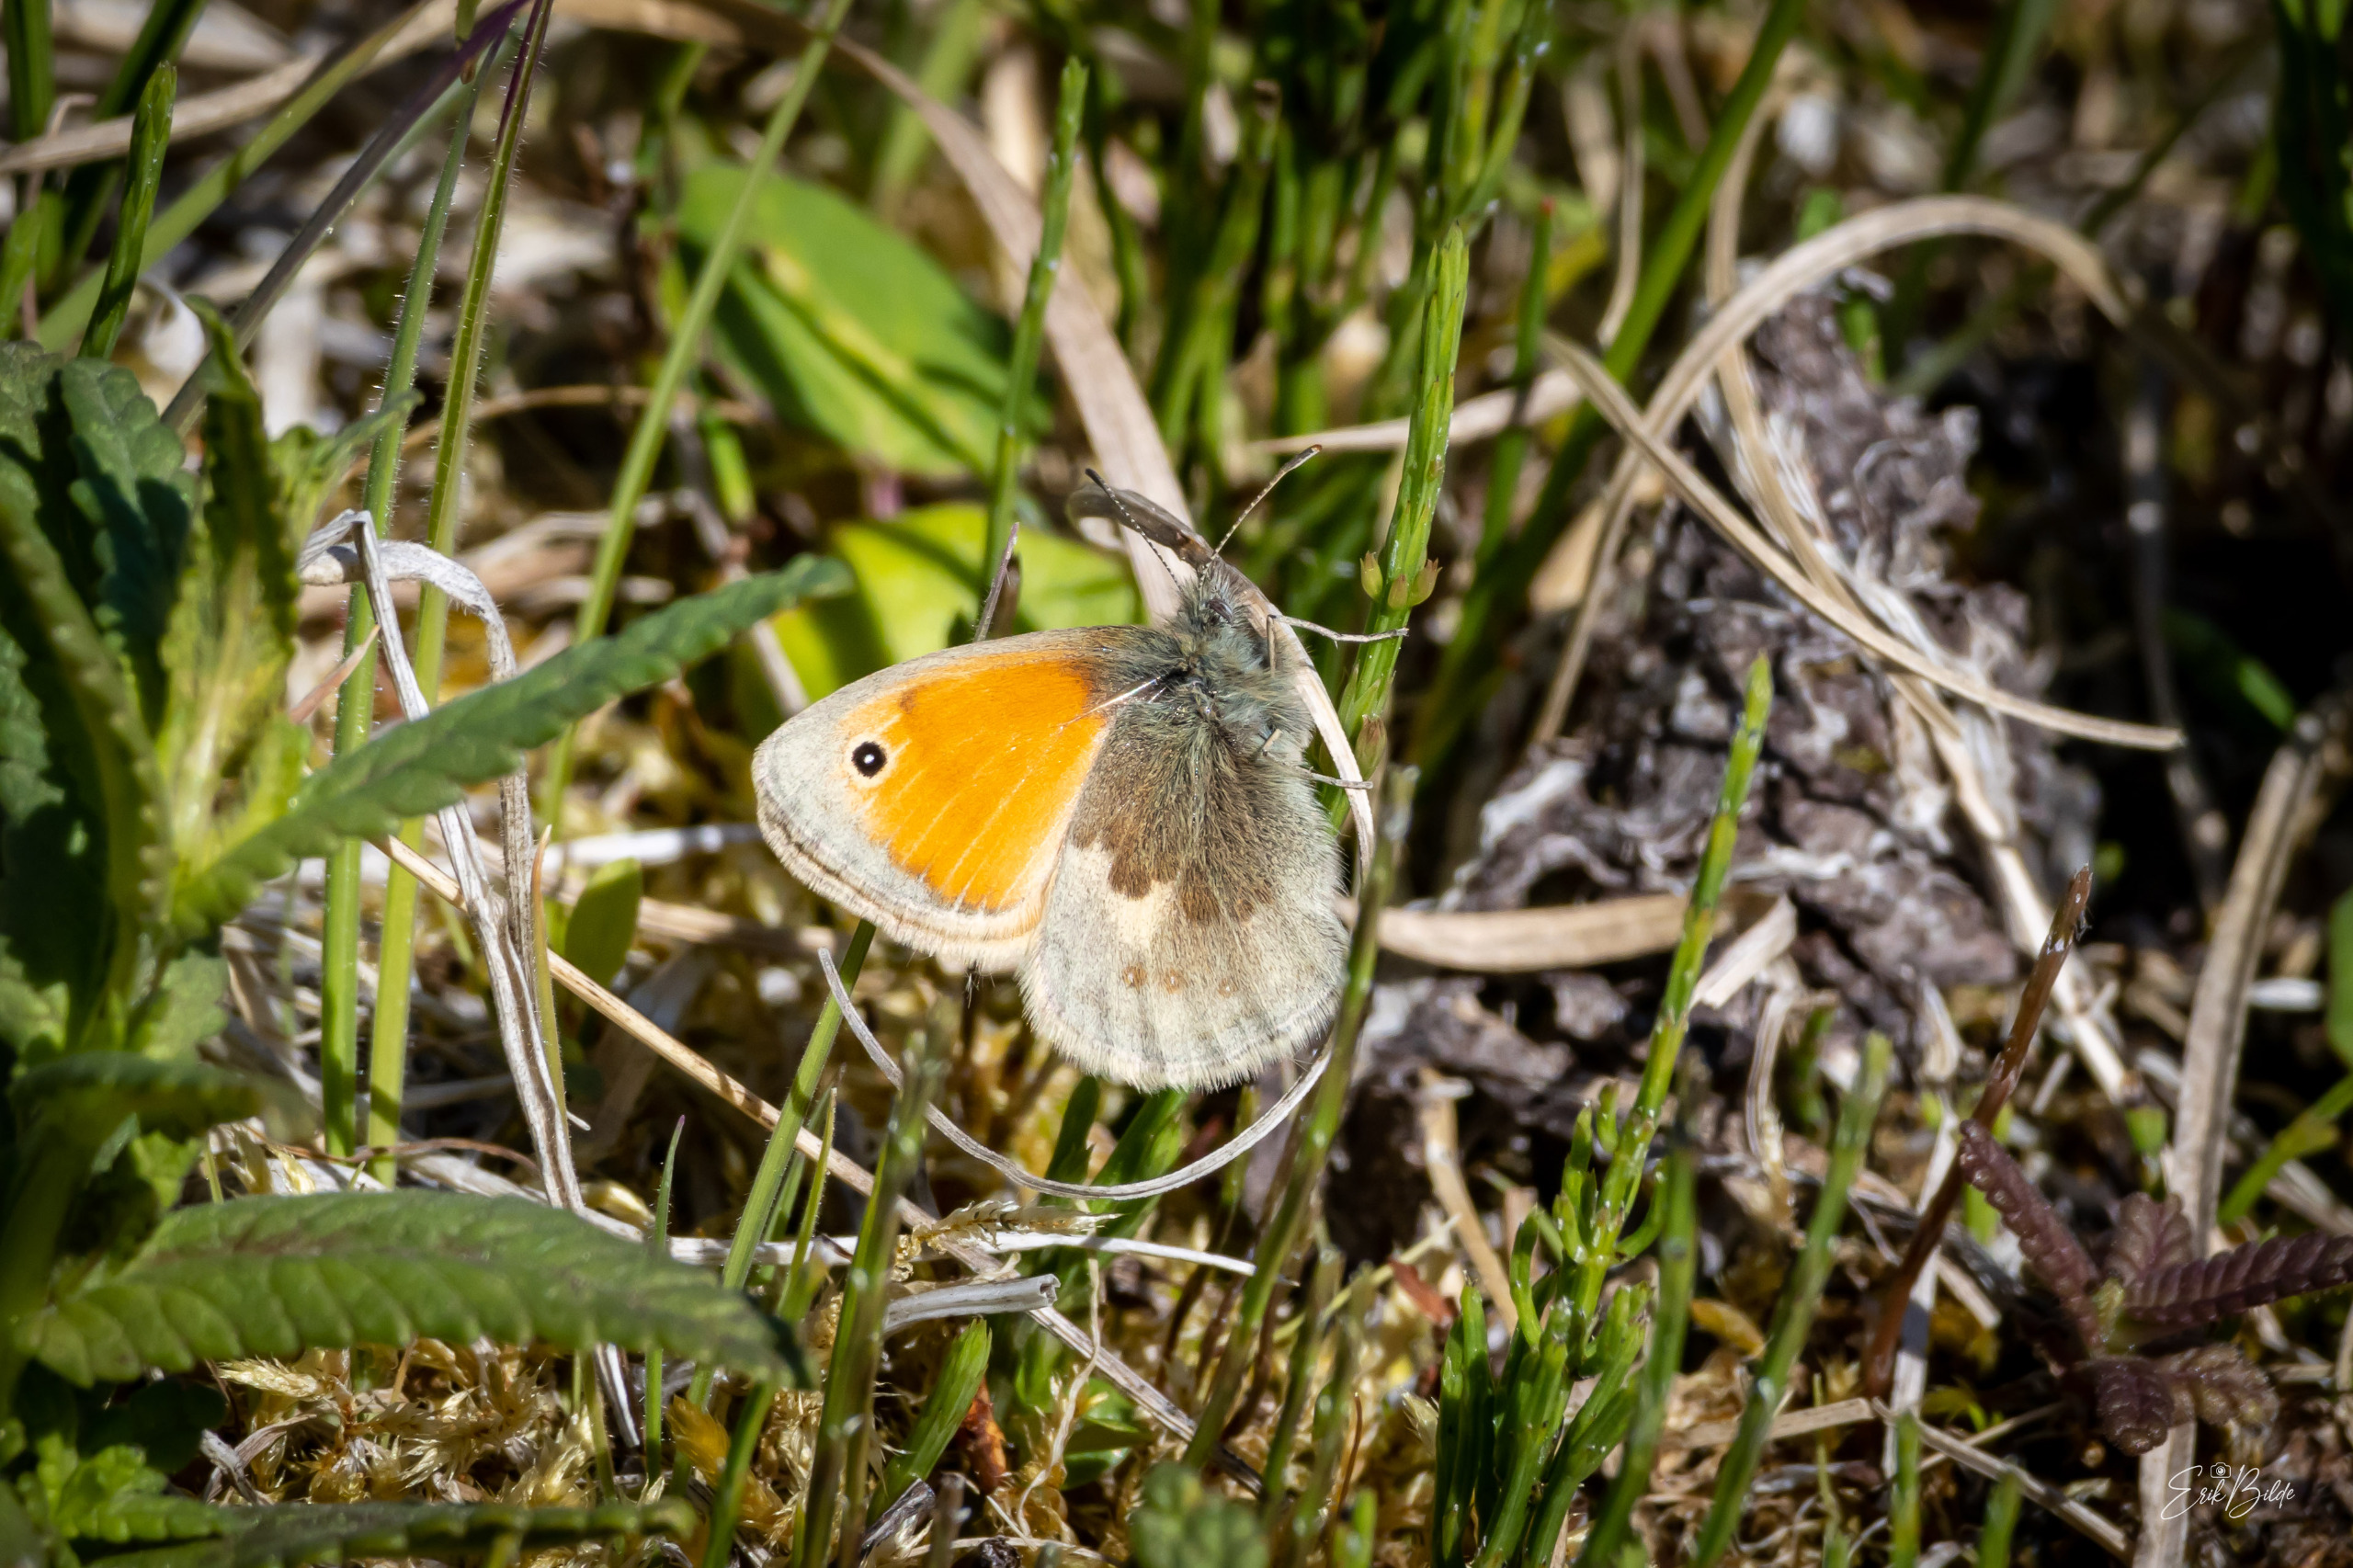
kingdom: Animalia
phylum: Arthropoda
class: Insecta
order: Lepidoptera
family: Nymphalidae
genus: Coenonympha
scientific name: Coenonympha pamphilus
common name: Okkergul randøje
